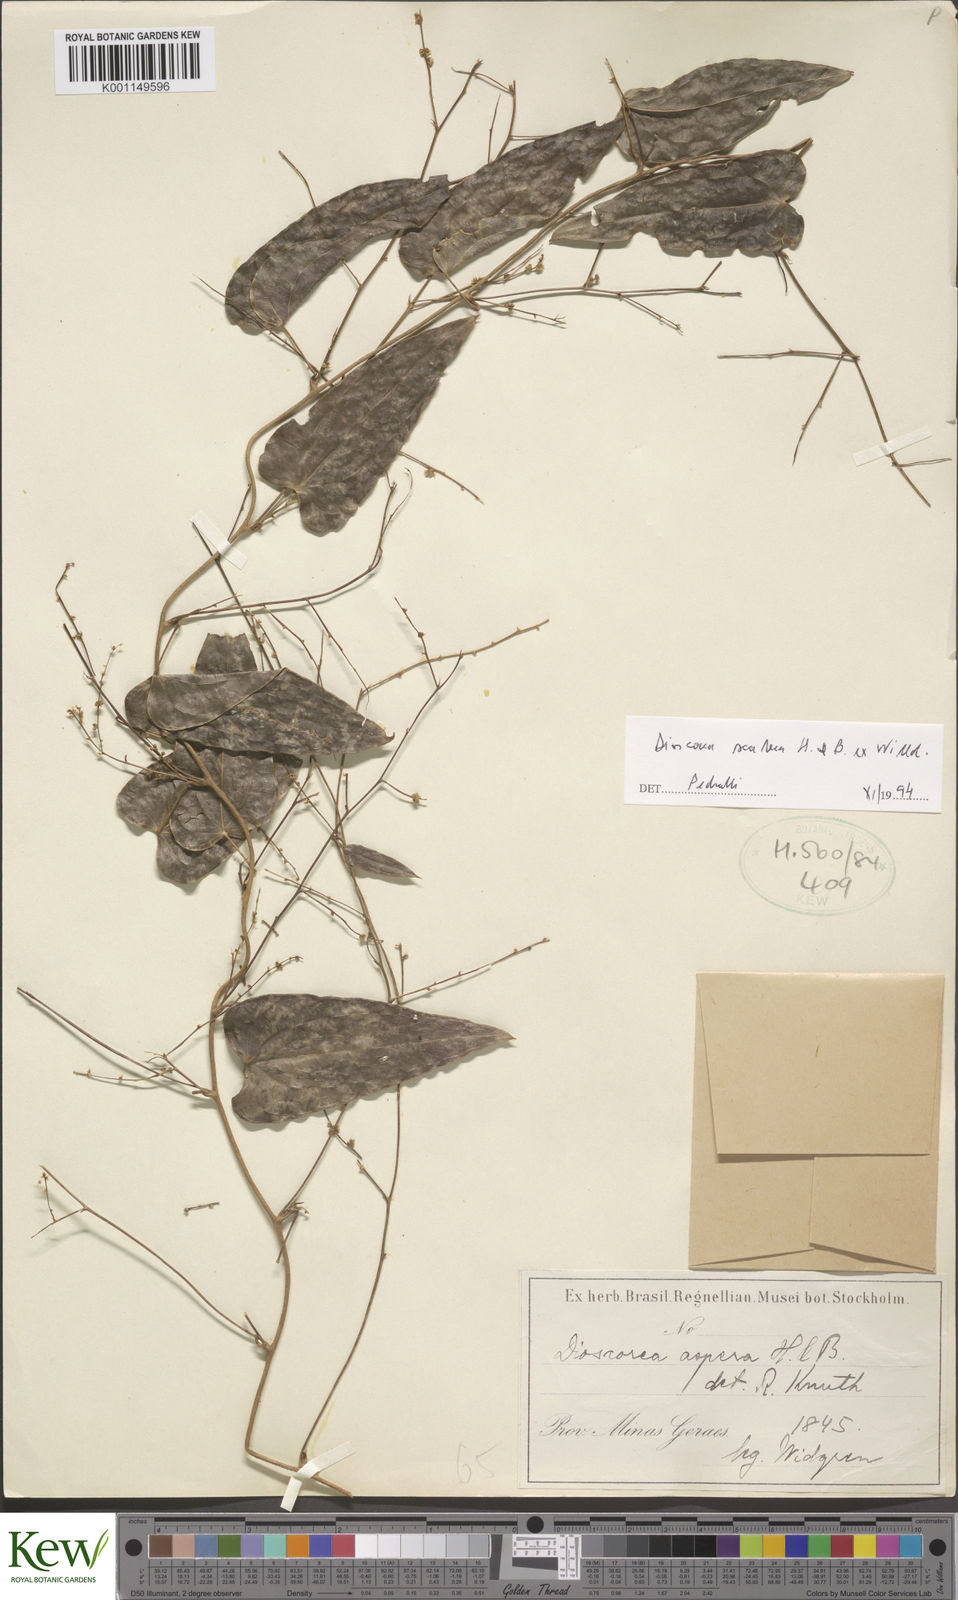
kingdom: Plantae
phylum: Tracheophyta
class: Liliopsida
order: Dioscoreales
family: Dioscoreaceae
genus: Dioscorea
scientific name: Dioscorea aspera
